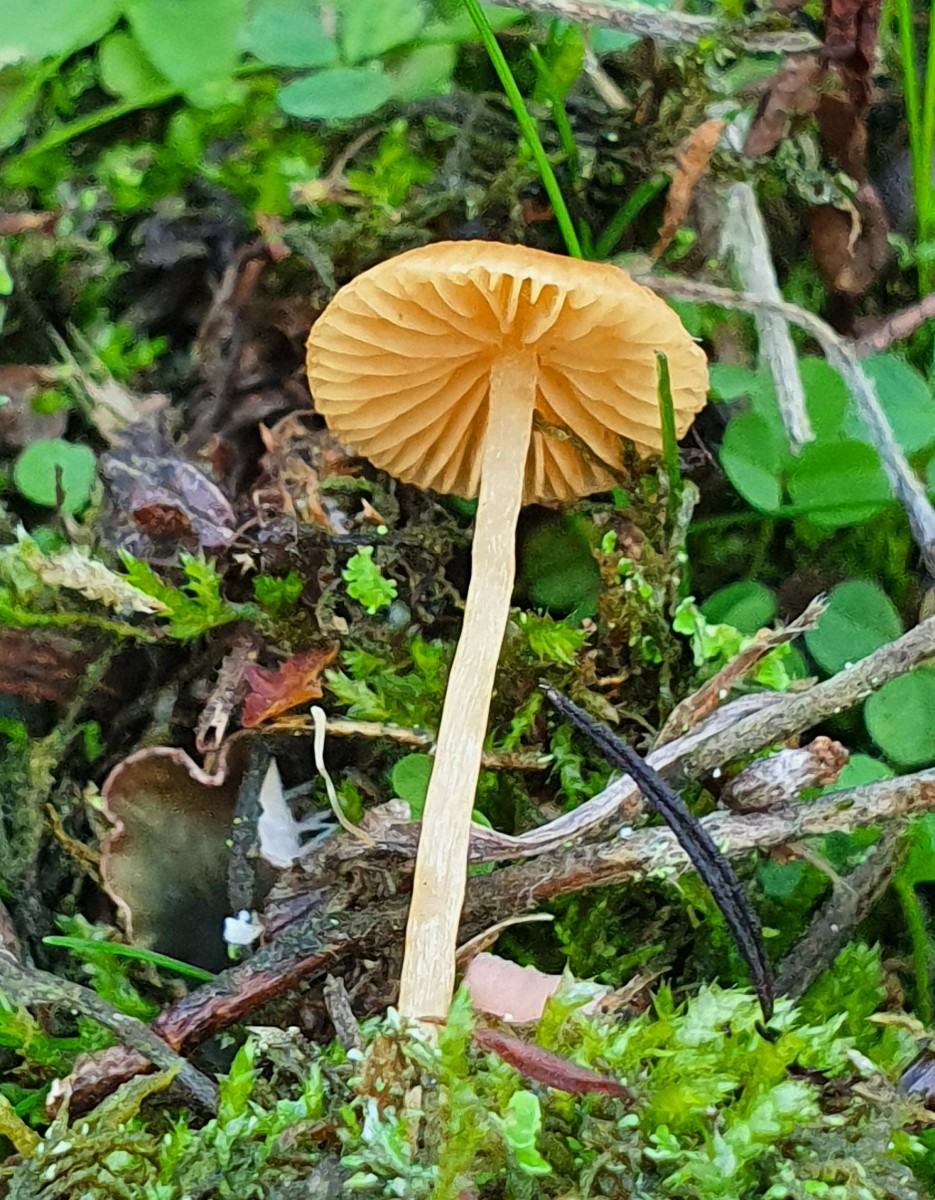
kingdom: Fungi
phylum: Basidiomycota
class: Agaricomycetes
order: Agaricales
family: Hymenogastraceae
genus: Galerina
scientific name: Galerina
